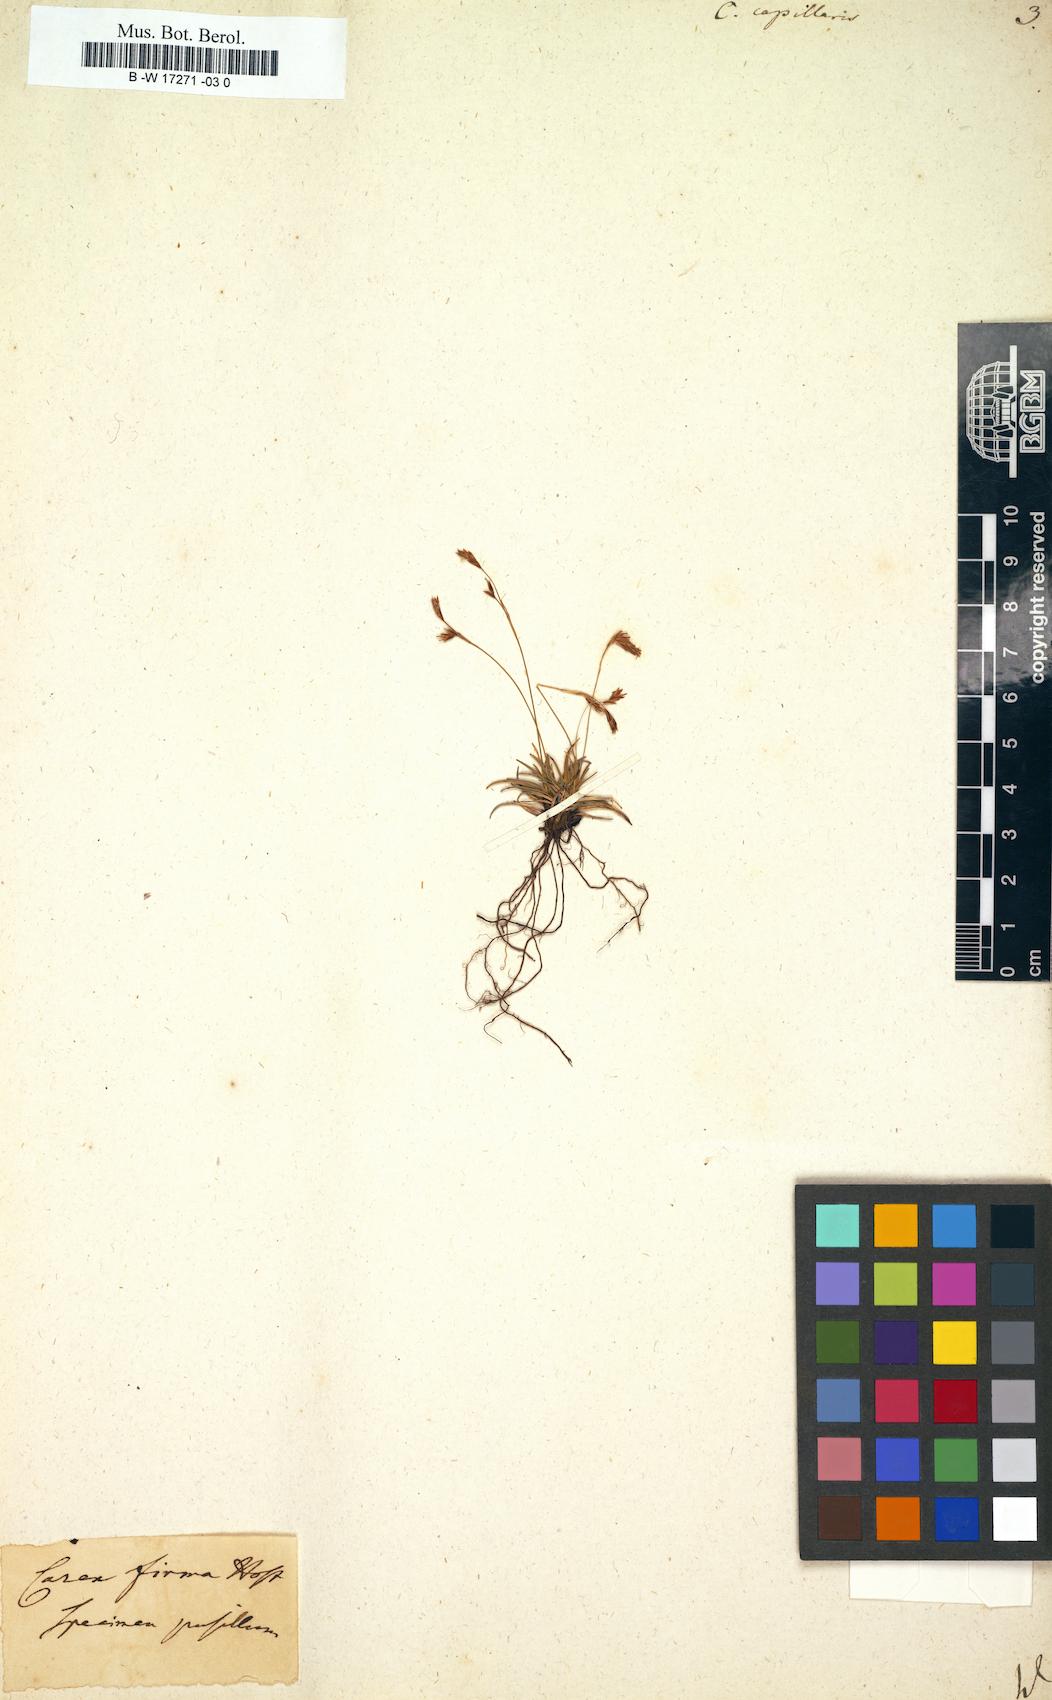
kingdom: Plantae
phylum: Tracheophyta
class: Liliopsida
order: Poales
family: Cyperaceae
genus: Carex
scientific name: Carex capillaris
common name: Hair sedge
